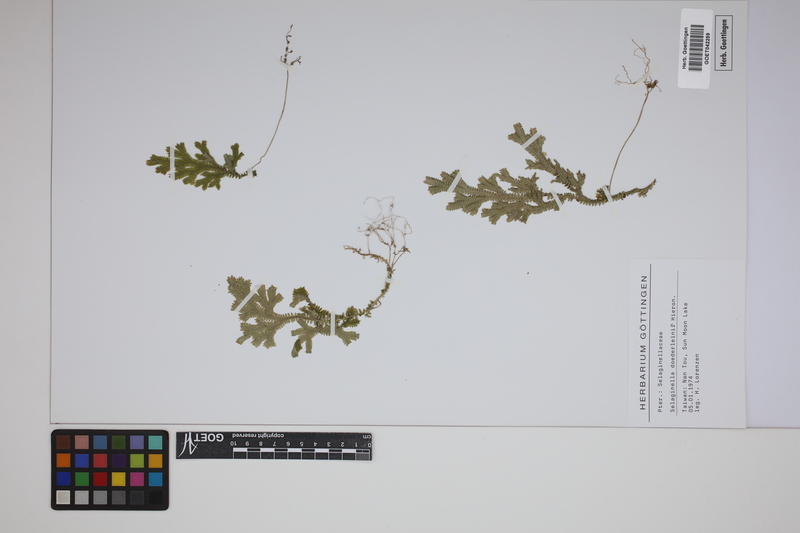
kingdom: Plantae
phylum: Tracheophyta
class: Lycopodiopsida
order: Selaginellales
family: Selaginellaceae
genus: Selaginella
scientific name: Selaginella doederleinii
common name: Greater selaginella
